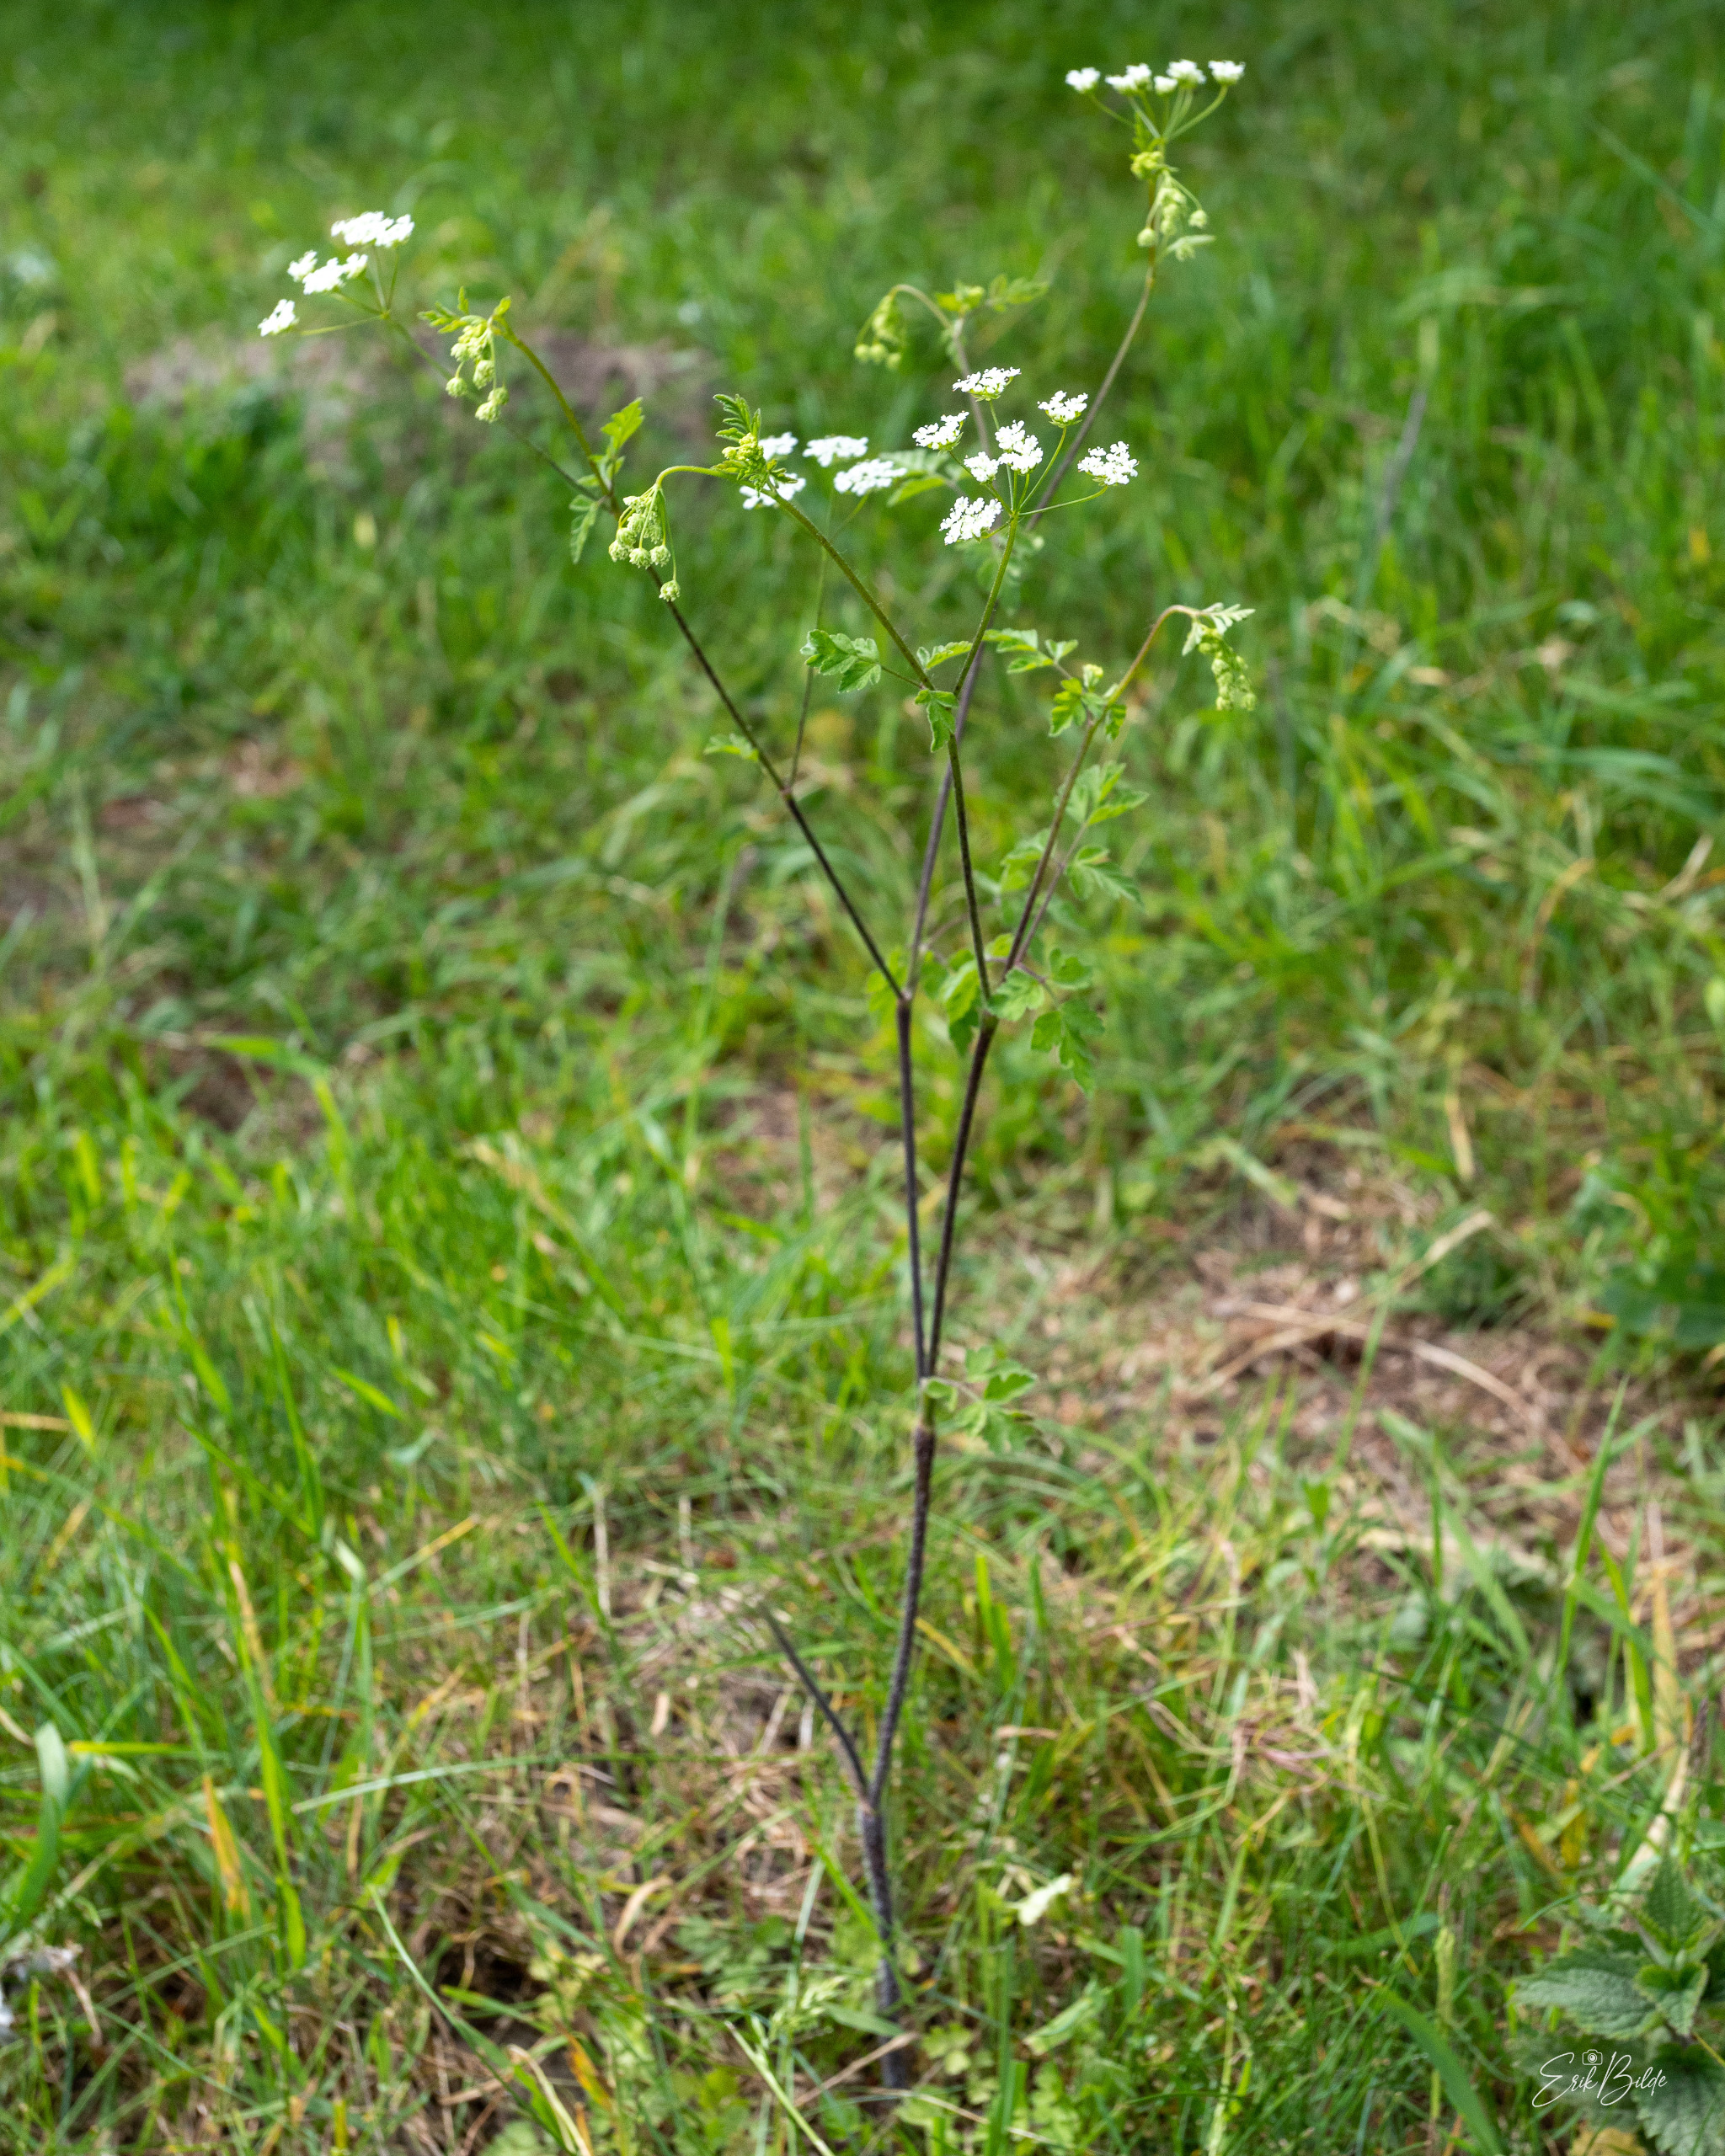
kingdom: Plantae
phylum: Tracheophyta
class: Magnoliopsida
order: Apiales
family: Apiaceae
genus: Chaerophyllum
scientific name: Chaerophyllum temulum
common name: Almindelig hulsvøb
